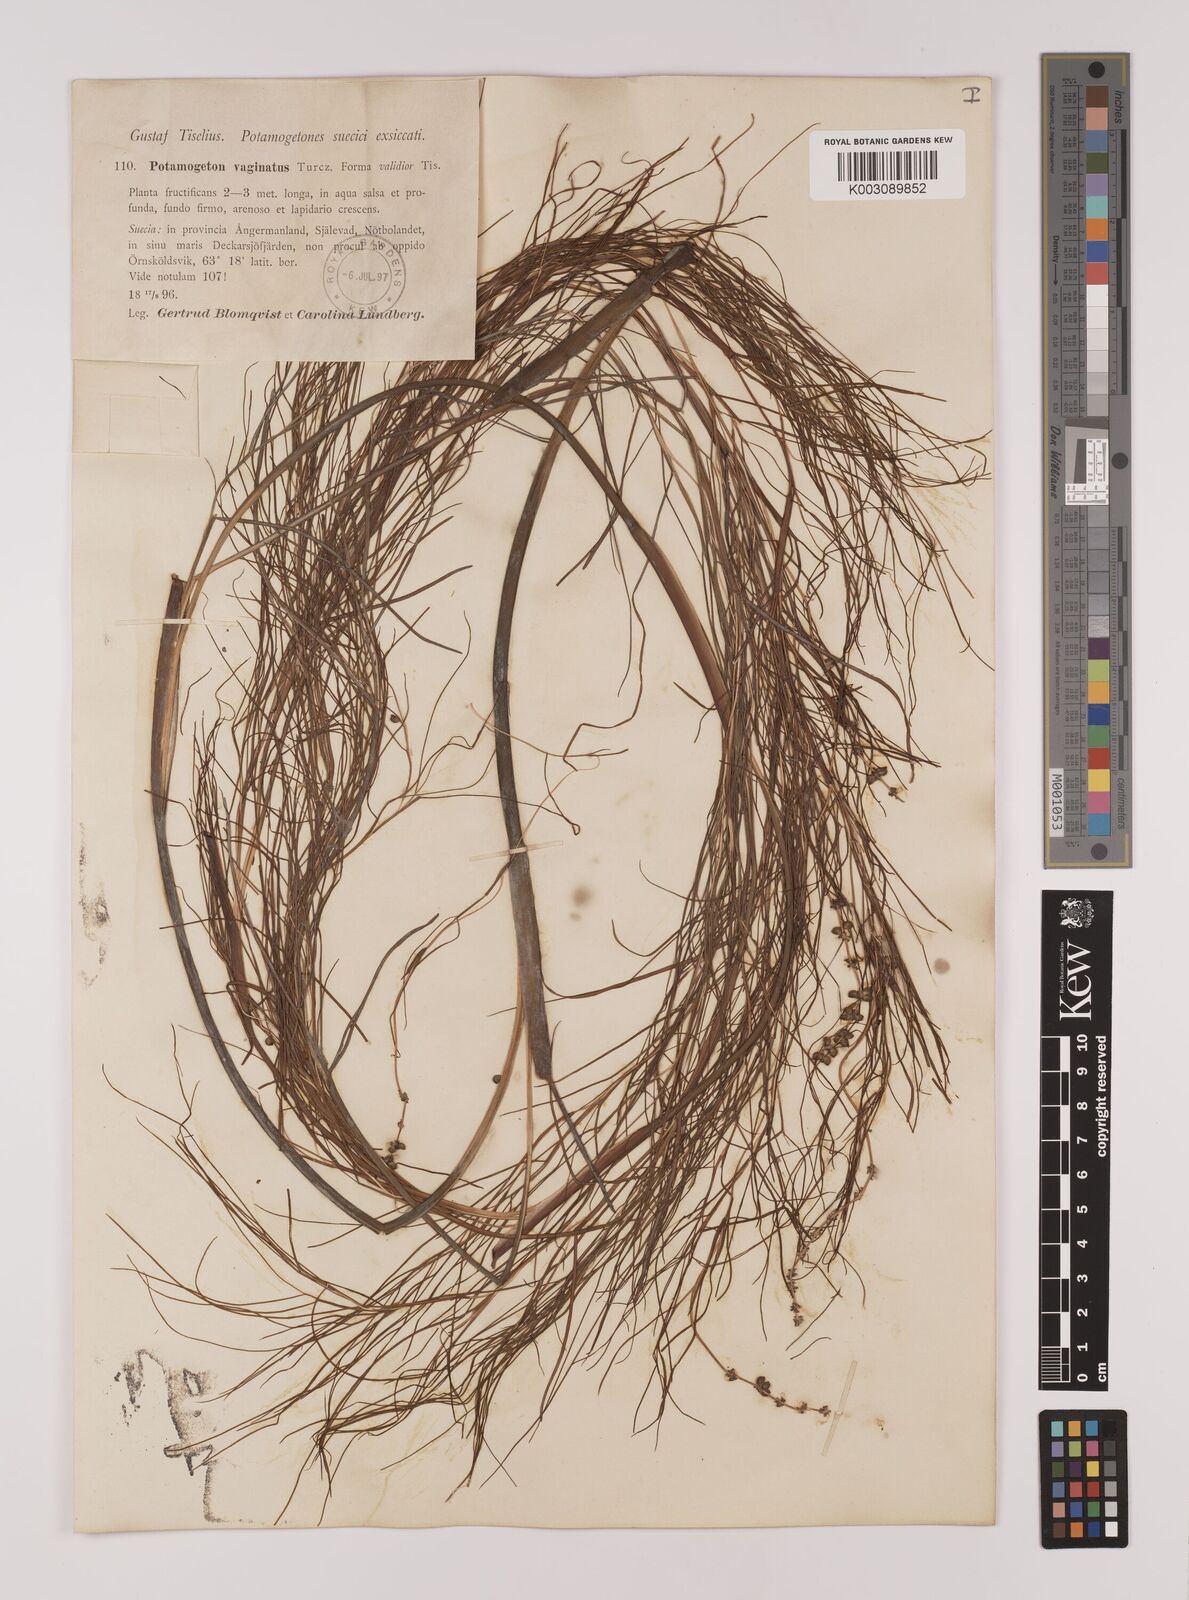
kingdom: Plantae
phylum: Tracheophyta
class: Liliopsida
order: Alismatales
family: Potamogetonaceae
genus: Stuckenia
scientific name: Stuckenia pectinata
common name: Sago pondweed
